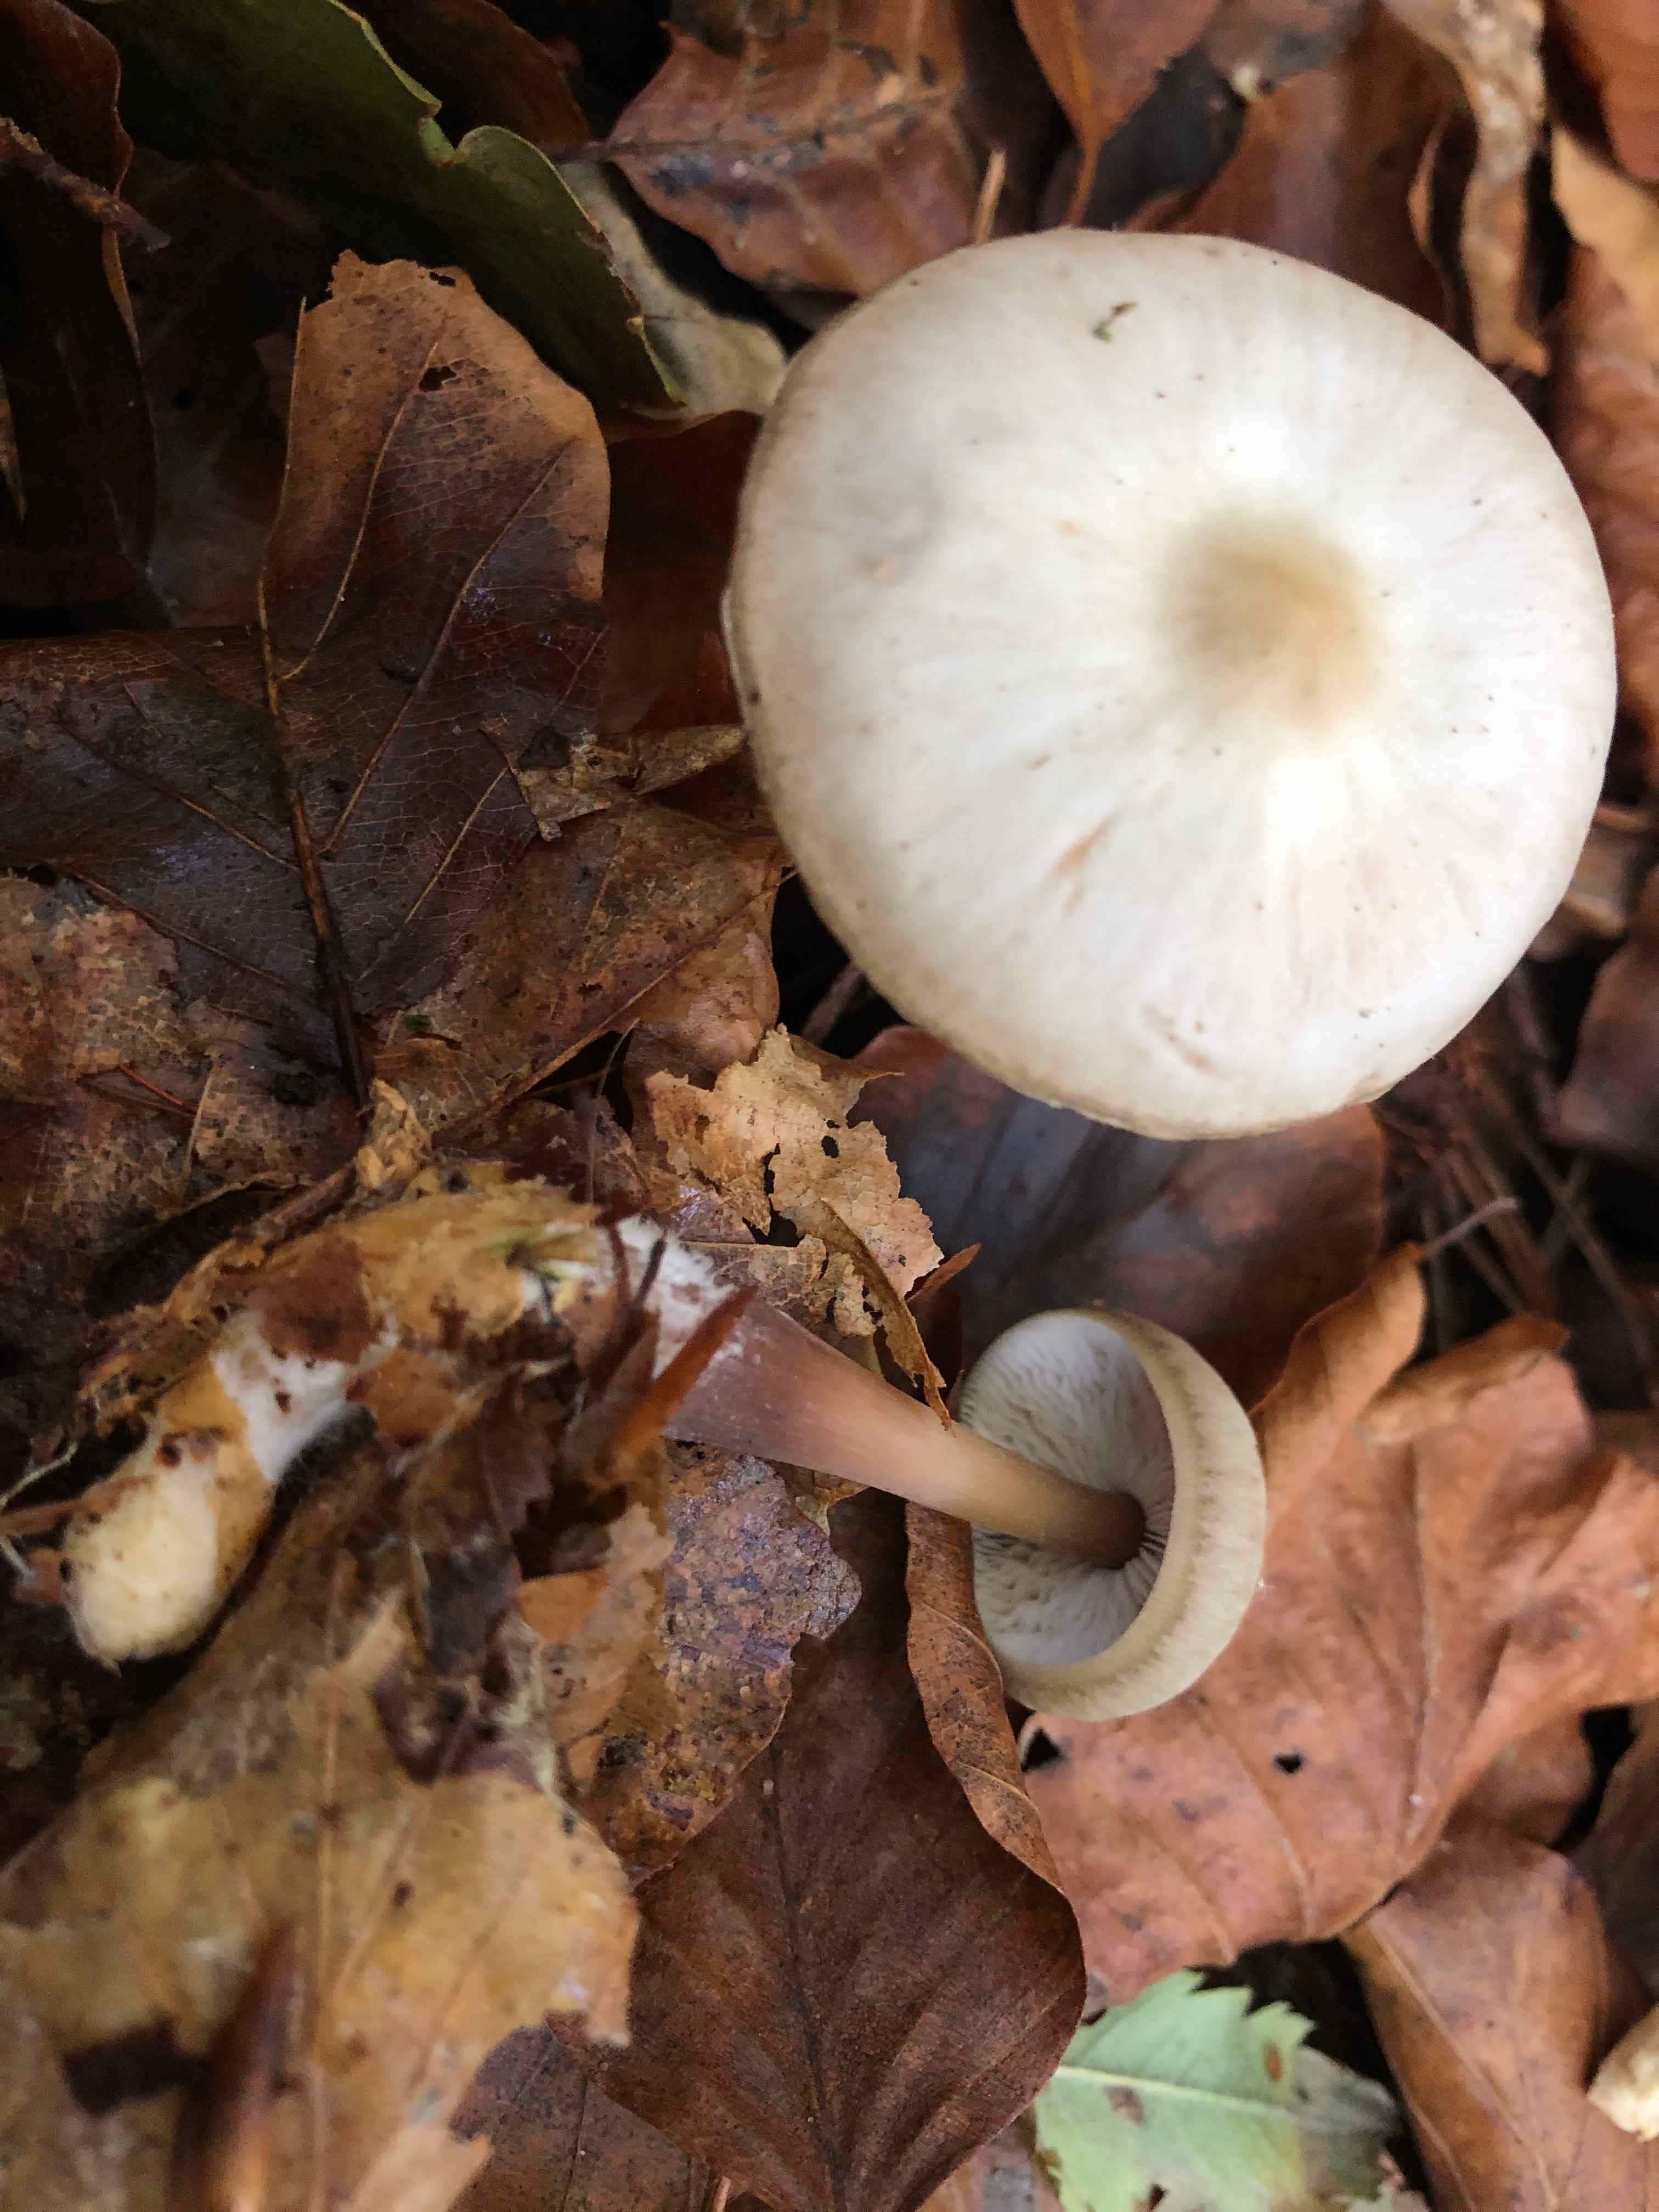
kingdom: Fungi
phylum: Basidiomycota
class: Agaricomycetes
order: Agaricales
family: Omphalotaceae
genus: Rhodocollybia
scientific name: Rhodocollybia asema
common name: horngrå fladhat
